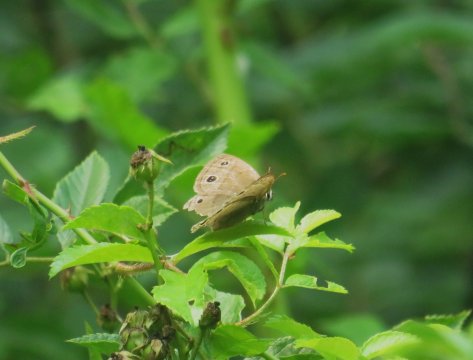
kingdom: Animalia
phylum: Arthropoda
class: Insecta
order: Lepidoptera
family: Nymphalidae
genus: Euptychia
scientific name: Euptychia cymela
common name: Little Wood Satyr
